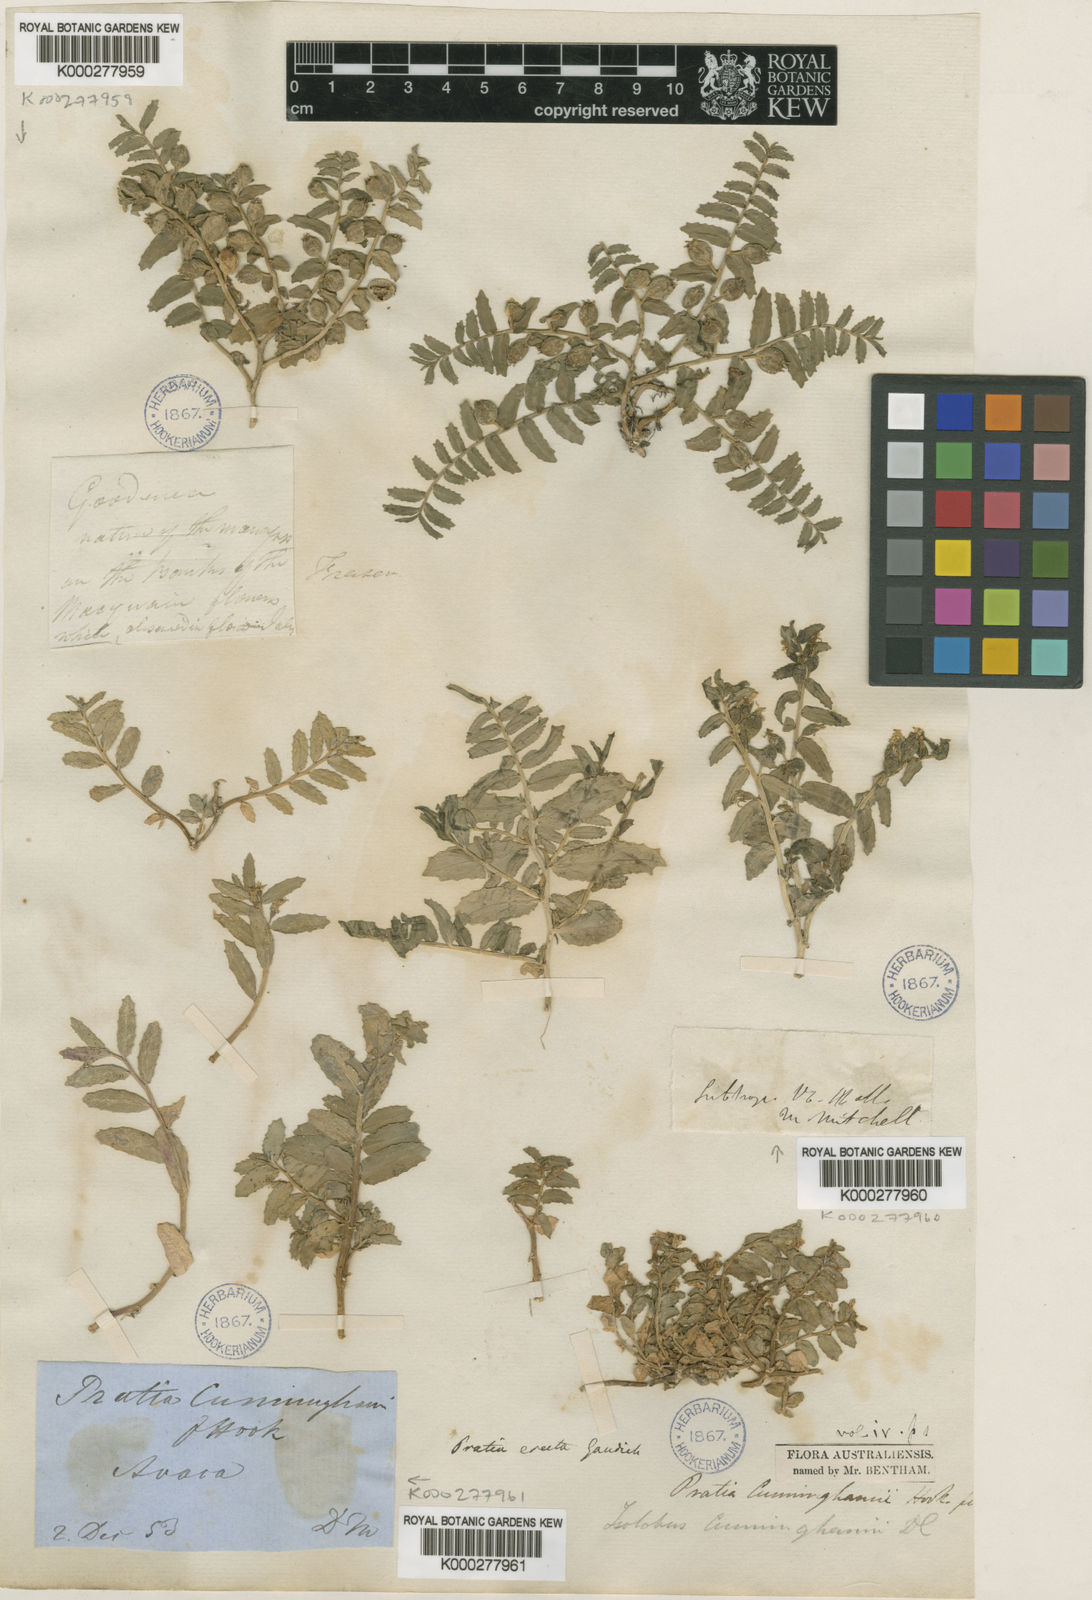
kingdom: Plantae
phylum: Tracheophyta
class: Magnoliopsida
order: Asterales
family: Campanulaceae
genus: Lobelia
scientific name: Lobelia concolor
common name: Poison pratia
